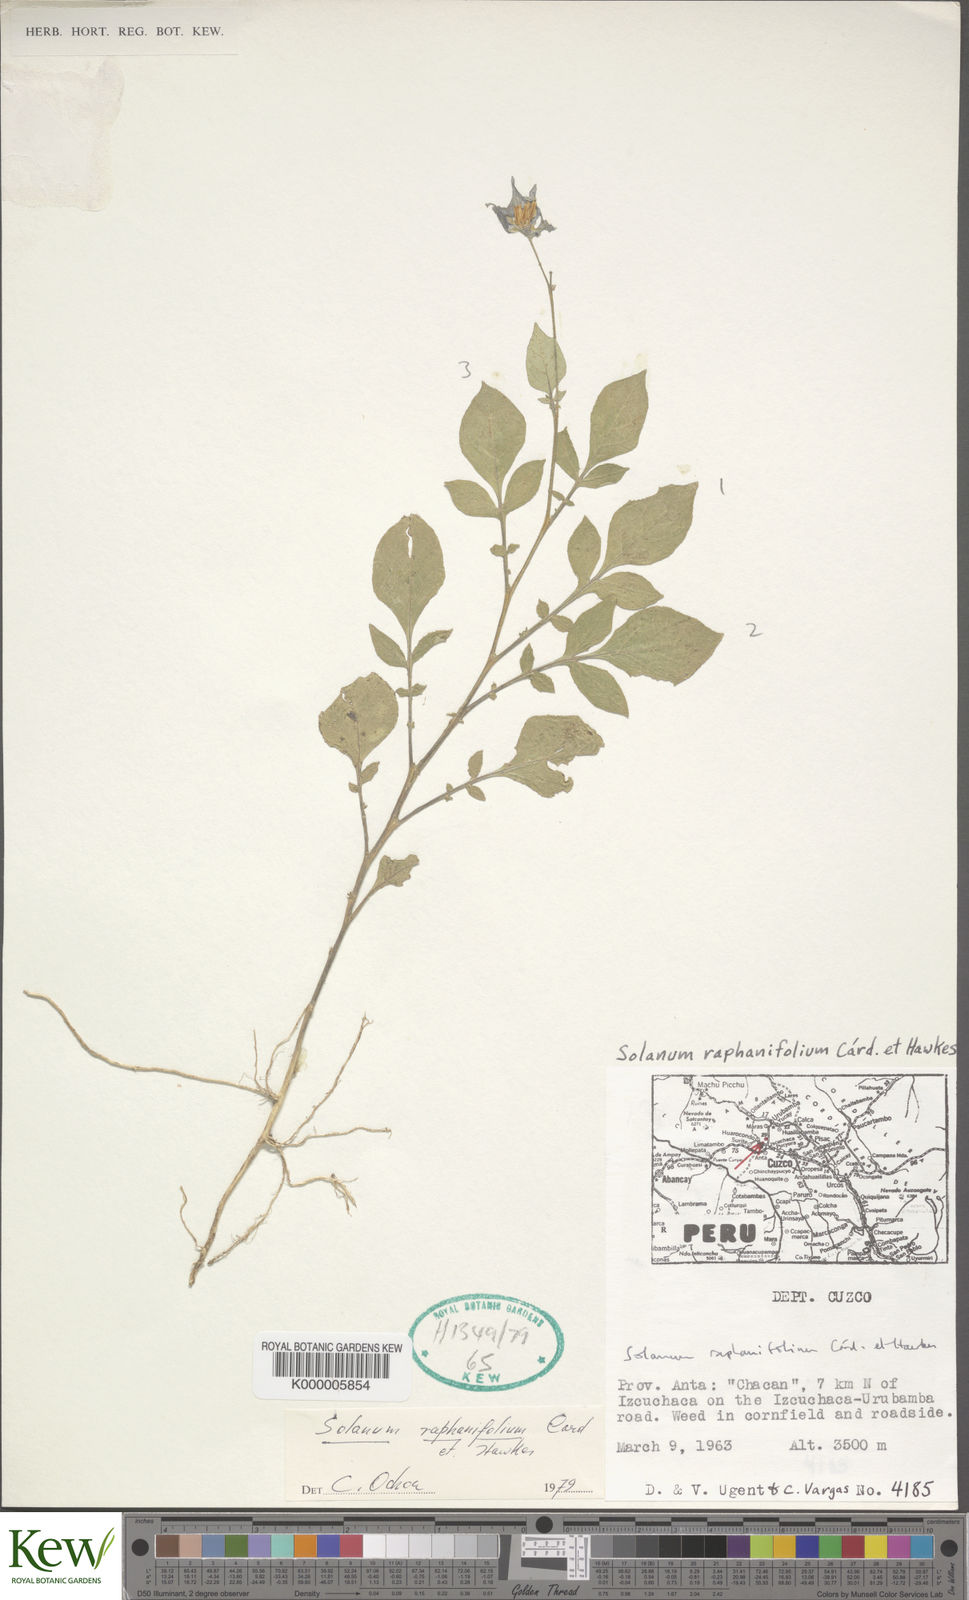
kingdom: Plantae
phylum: Tracheophyta
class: Magnoliopsida
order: Solanales
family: Solanaceae
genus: Solanum
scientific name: Solanum raphanifolium
